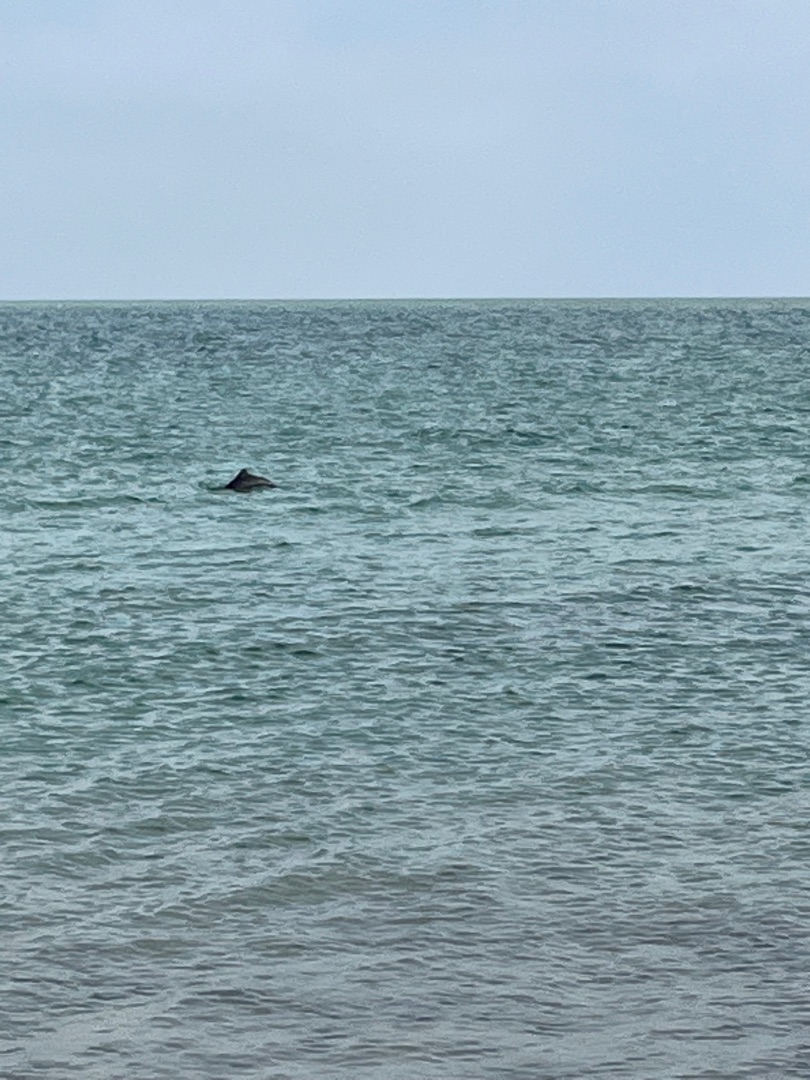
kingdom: Animalia
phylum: Chordata
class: Mammalia
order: Cetacea
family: Phocoenidae
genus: Phocoena
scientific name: Phocoena phocoena
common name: Marsvin
